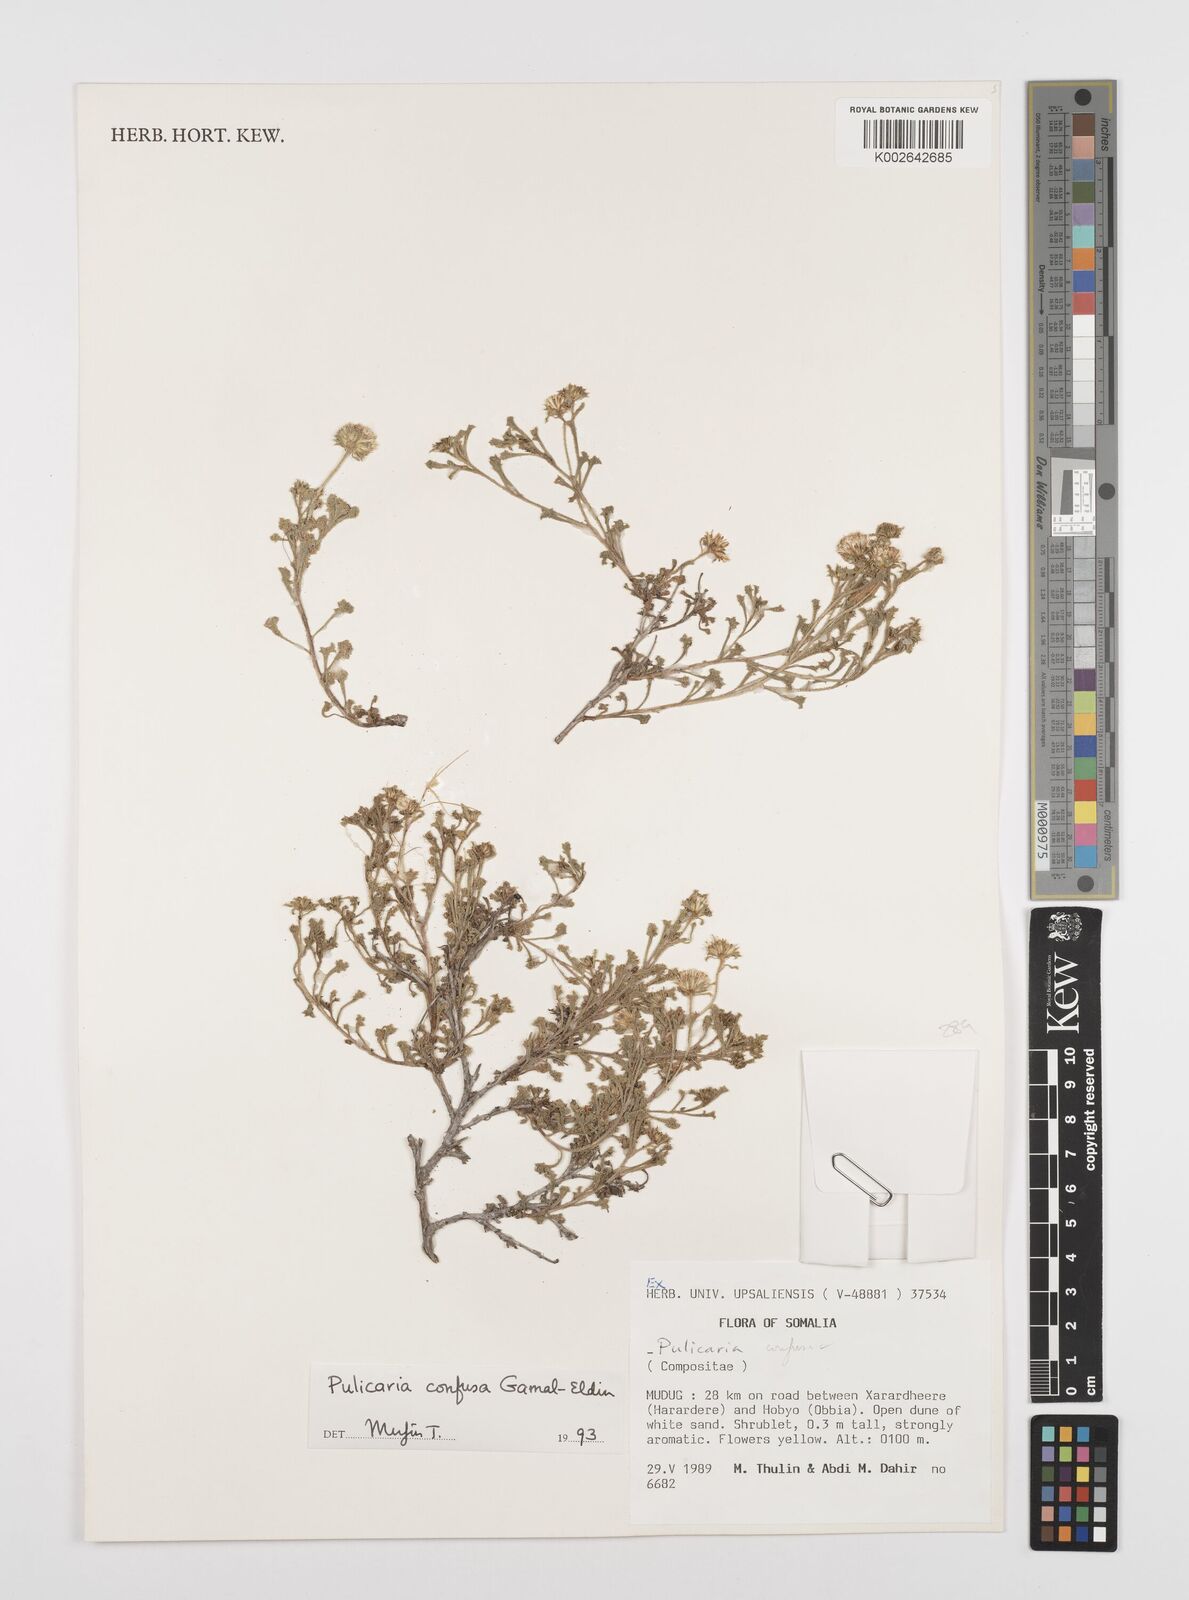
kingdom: Plantae
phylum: Tracheophyta
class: Magnoliopsida
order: Asterales
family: Asteraceae
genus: Pulicaria
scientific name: Pulicaria confusa
